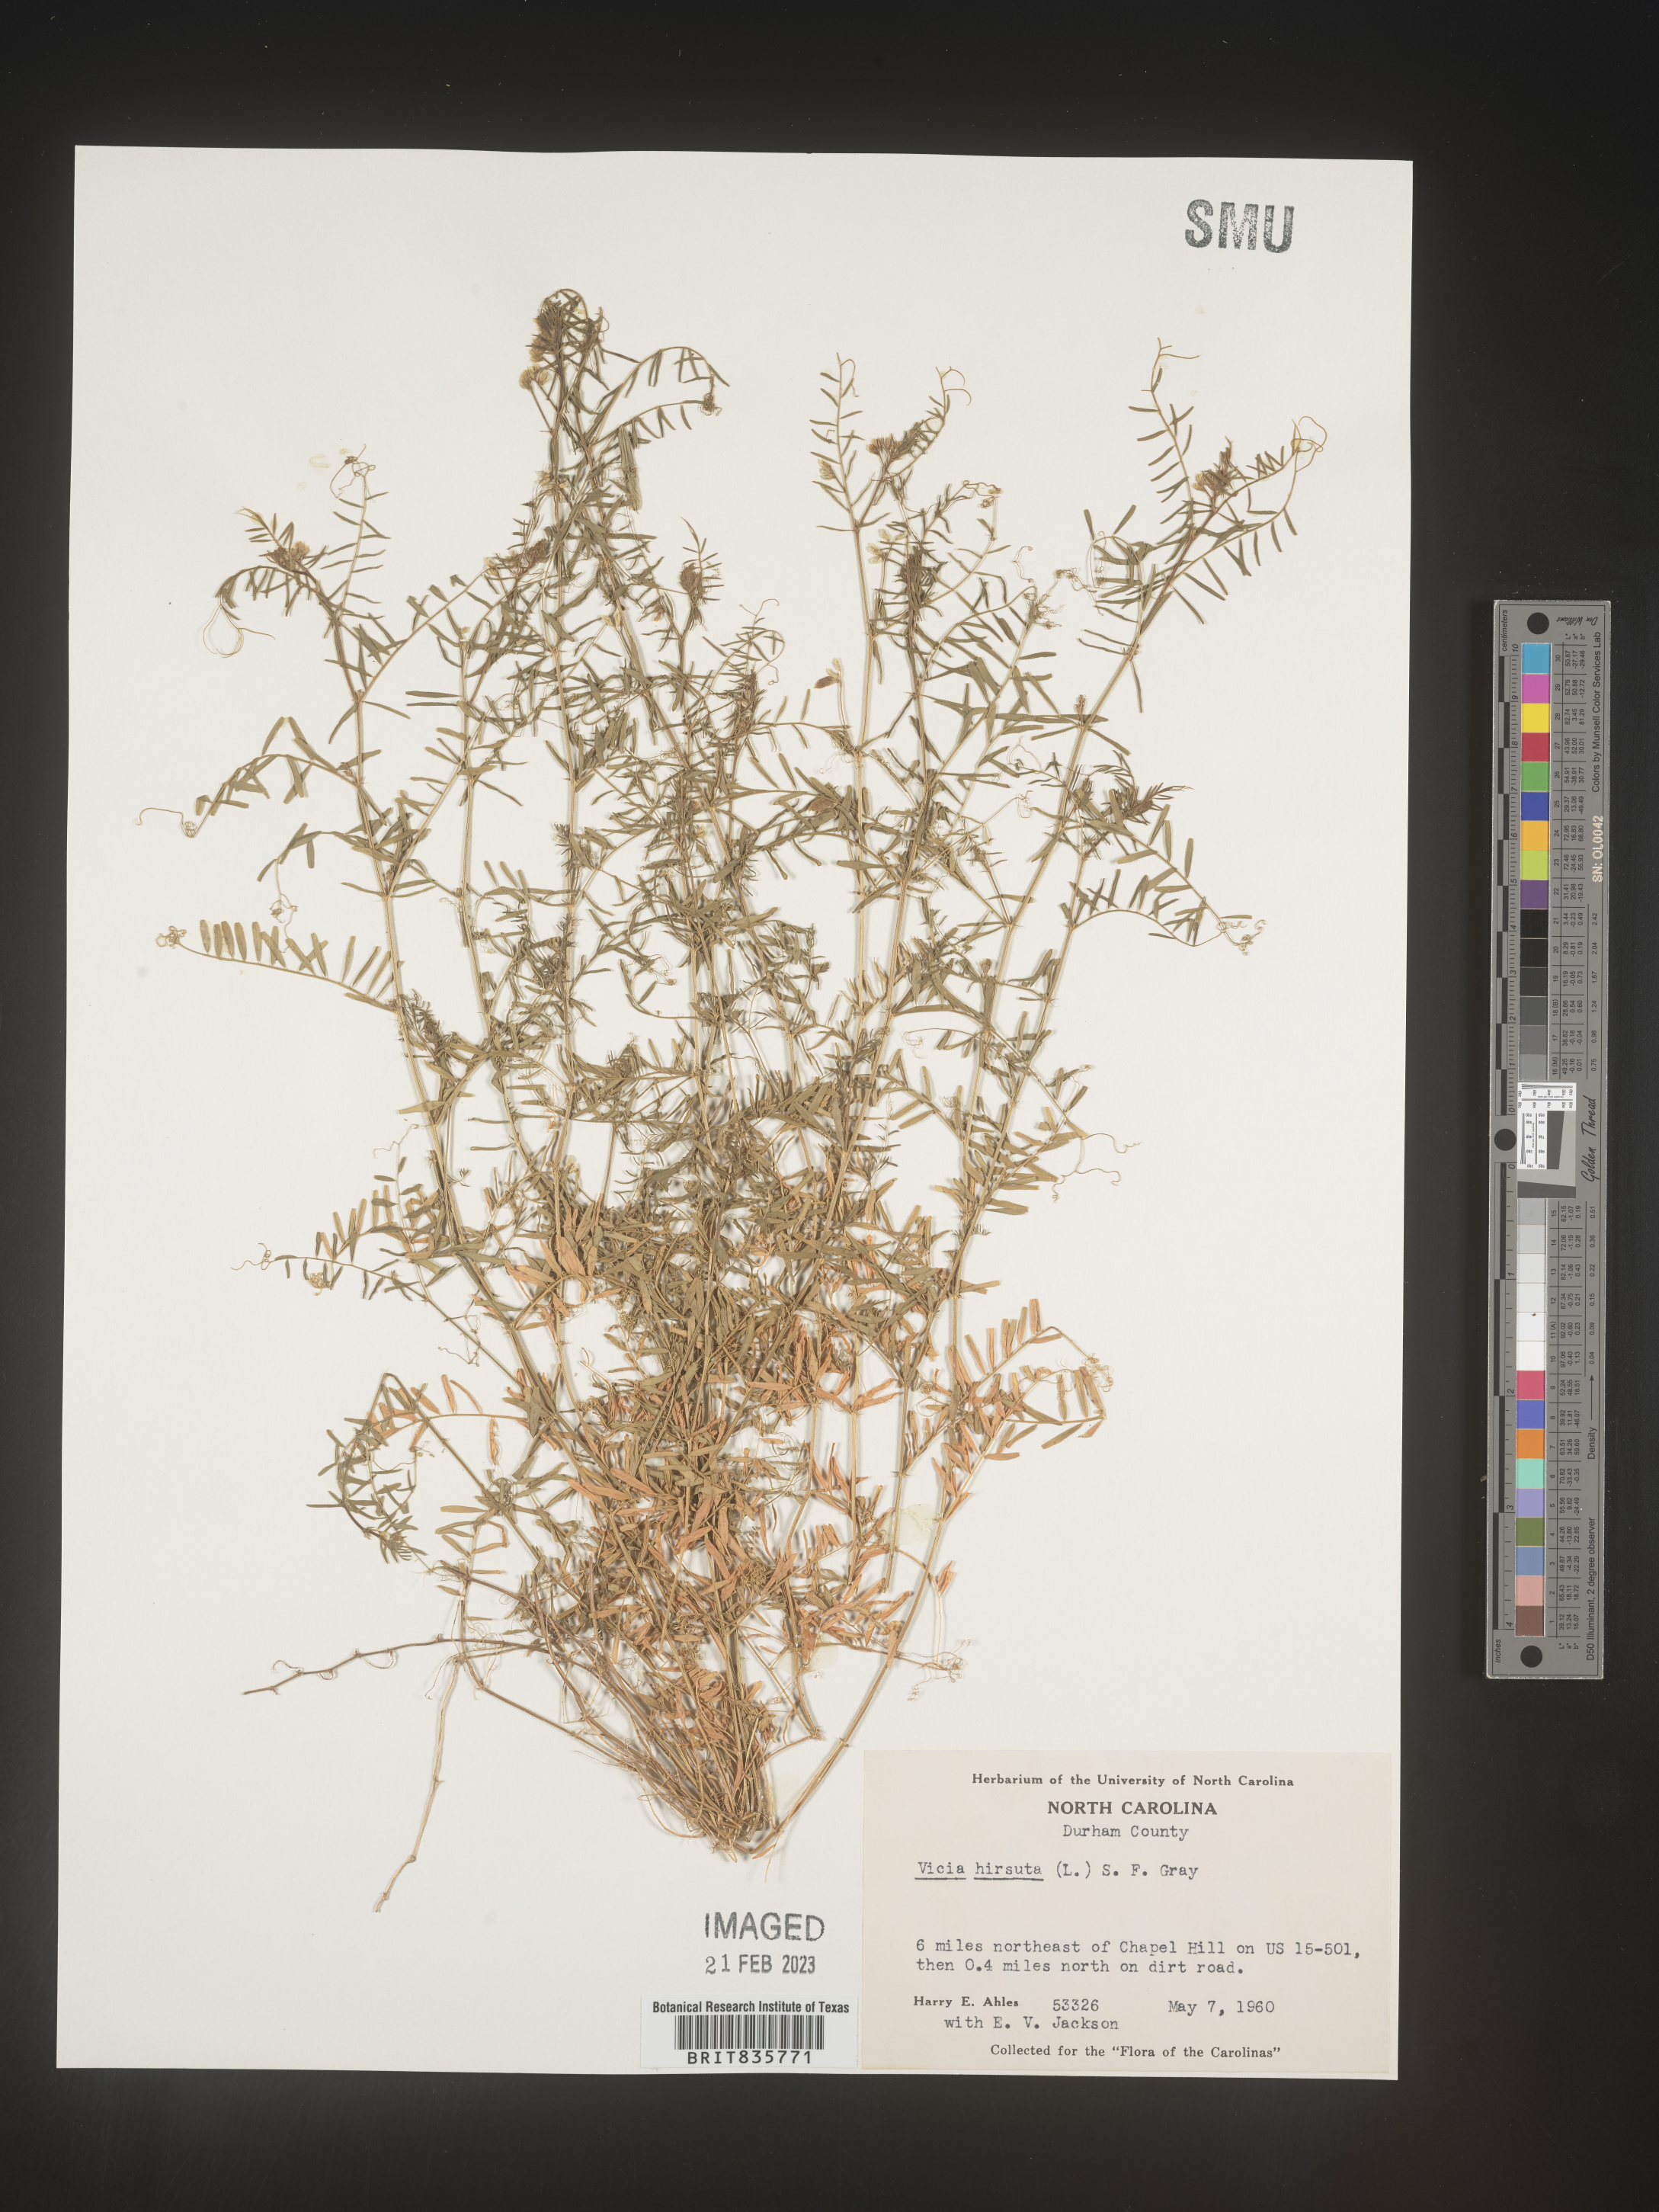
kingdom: Plantae
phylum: Tracheophyta
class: Magnoliopsida
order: Fabales
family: Fabaceae
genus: Vicia
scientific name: Vicia
